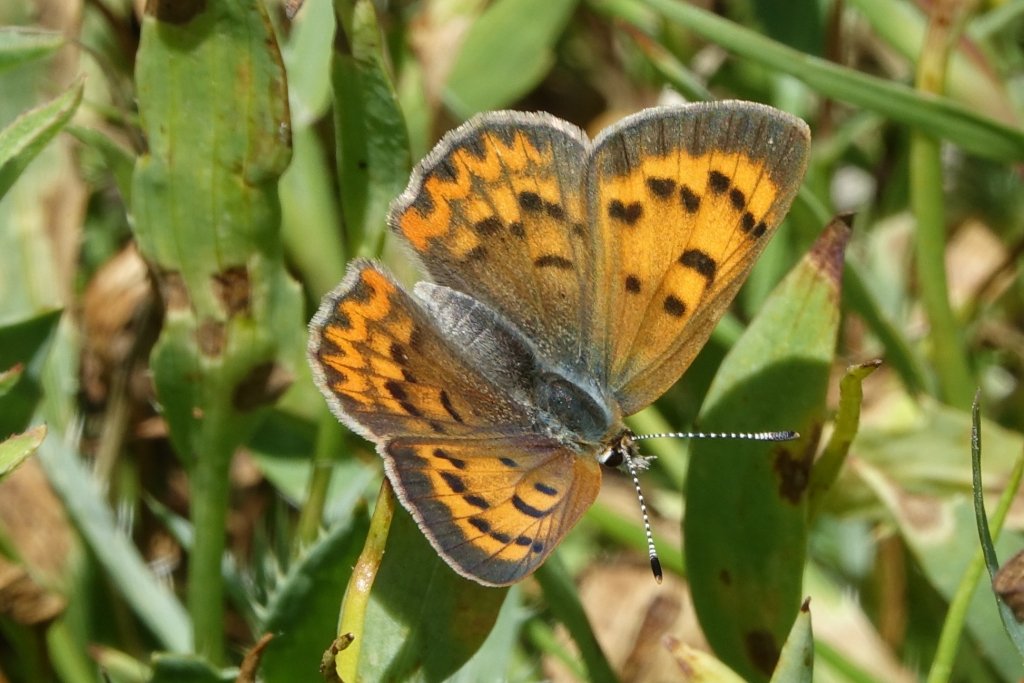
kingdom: Animalia
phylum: Arthropoda
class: Insecta
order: Lepidoptera
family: Sesiidae
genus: Sesia
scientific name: Sesia Lycaena helloides
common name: Purplish Copper
